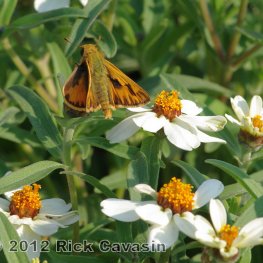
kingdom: Animalia
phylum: Arthropoda
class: Insecta
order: Lepidoptera
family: Hesperiidae
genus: Hylephila
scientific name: Hylephila phyleus
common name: Fiery Skipper
